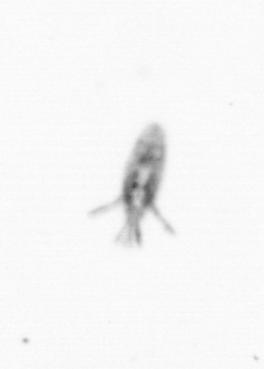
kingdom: Animalia
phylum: Arthropoda
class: Copepoda
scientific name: Copepoda
